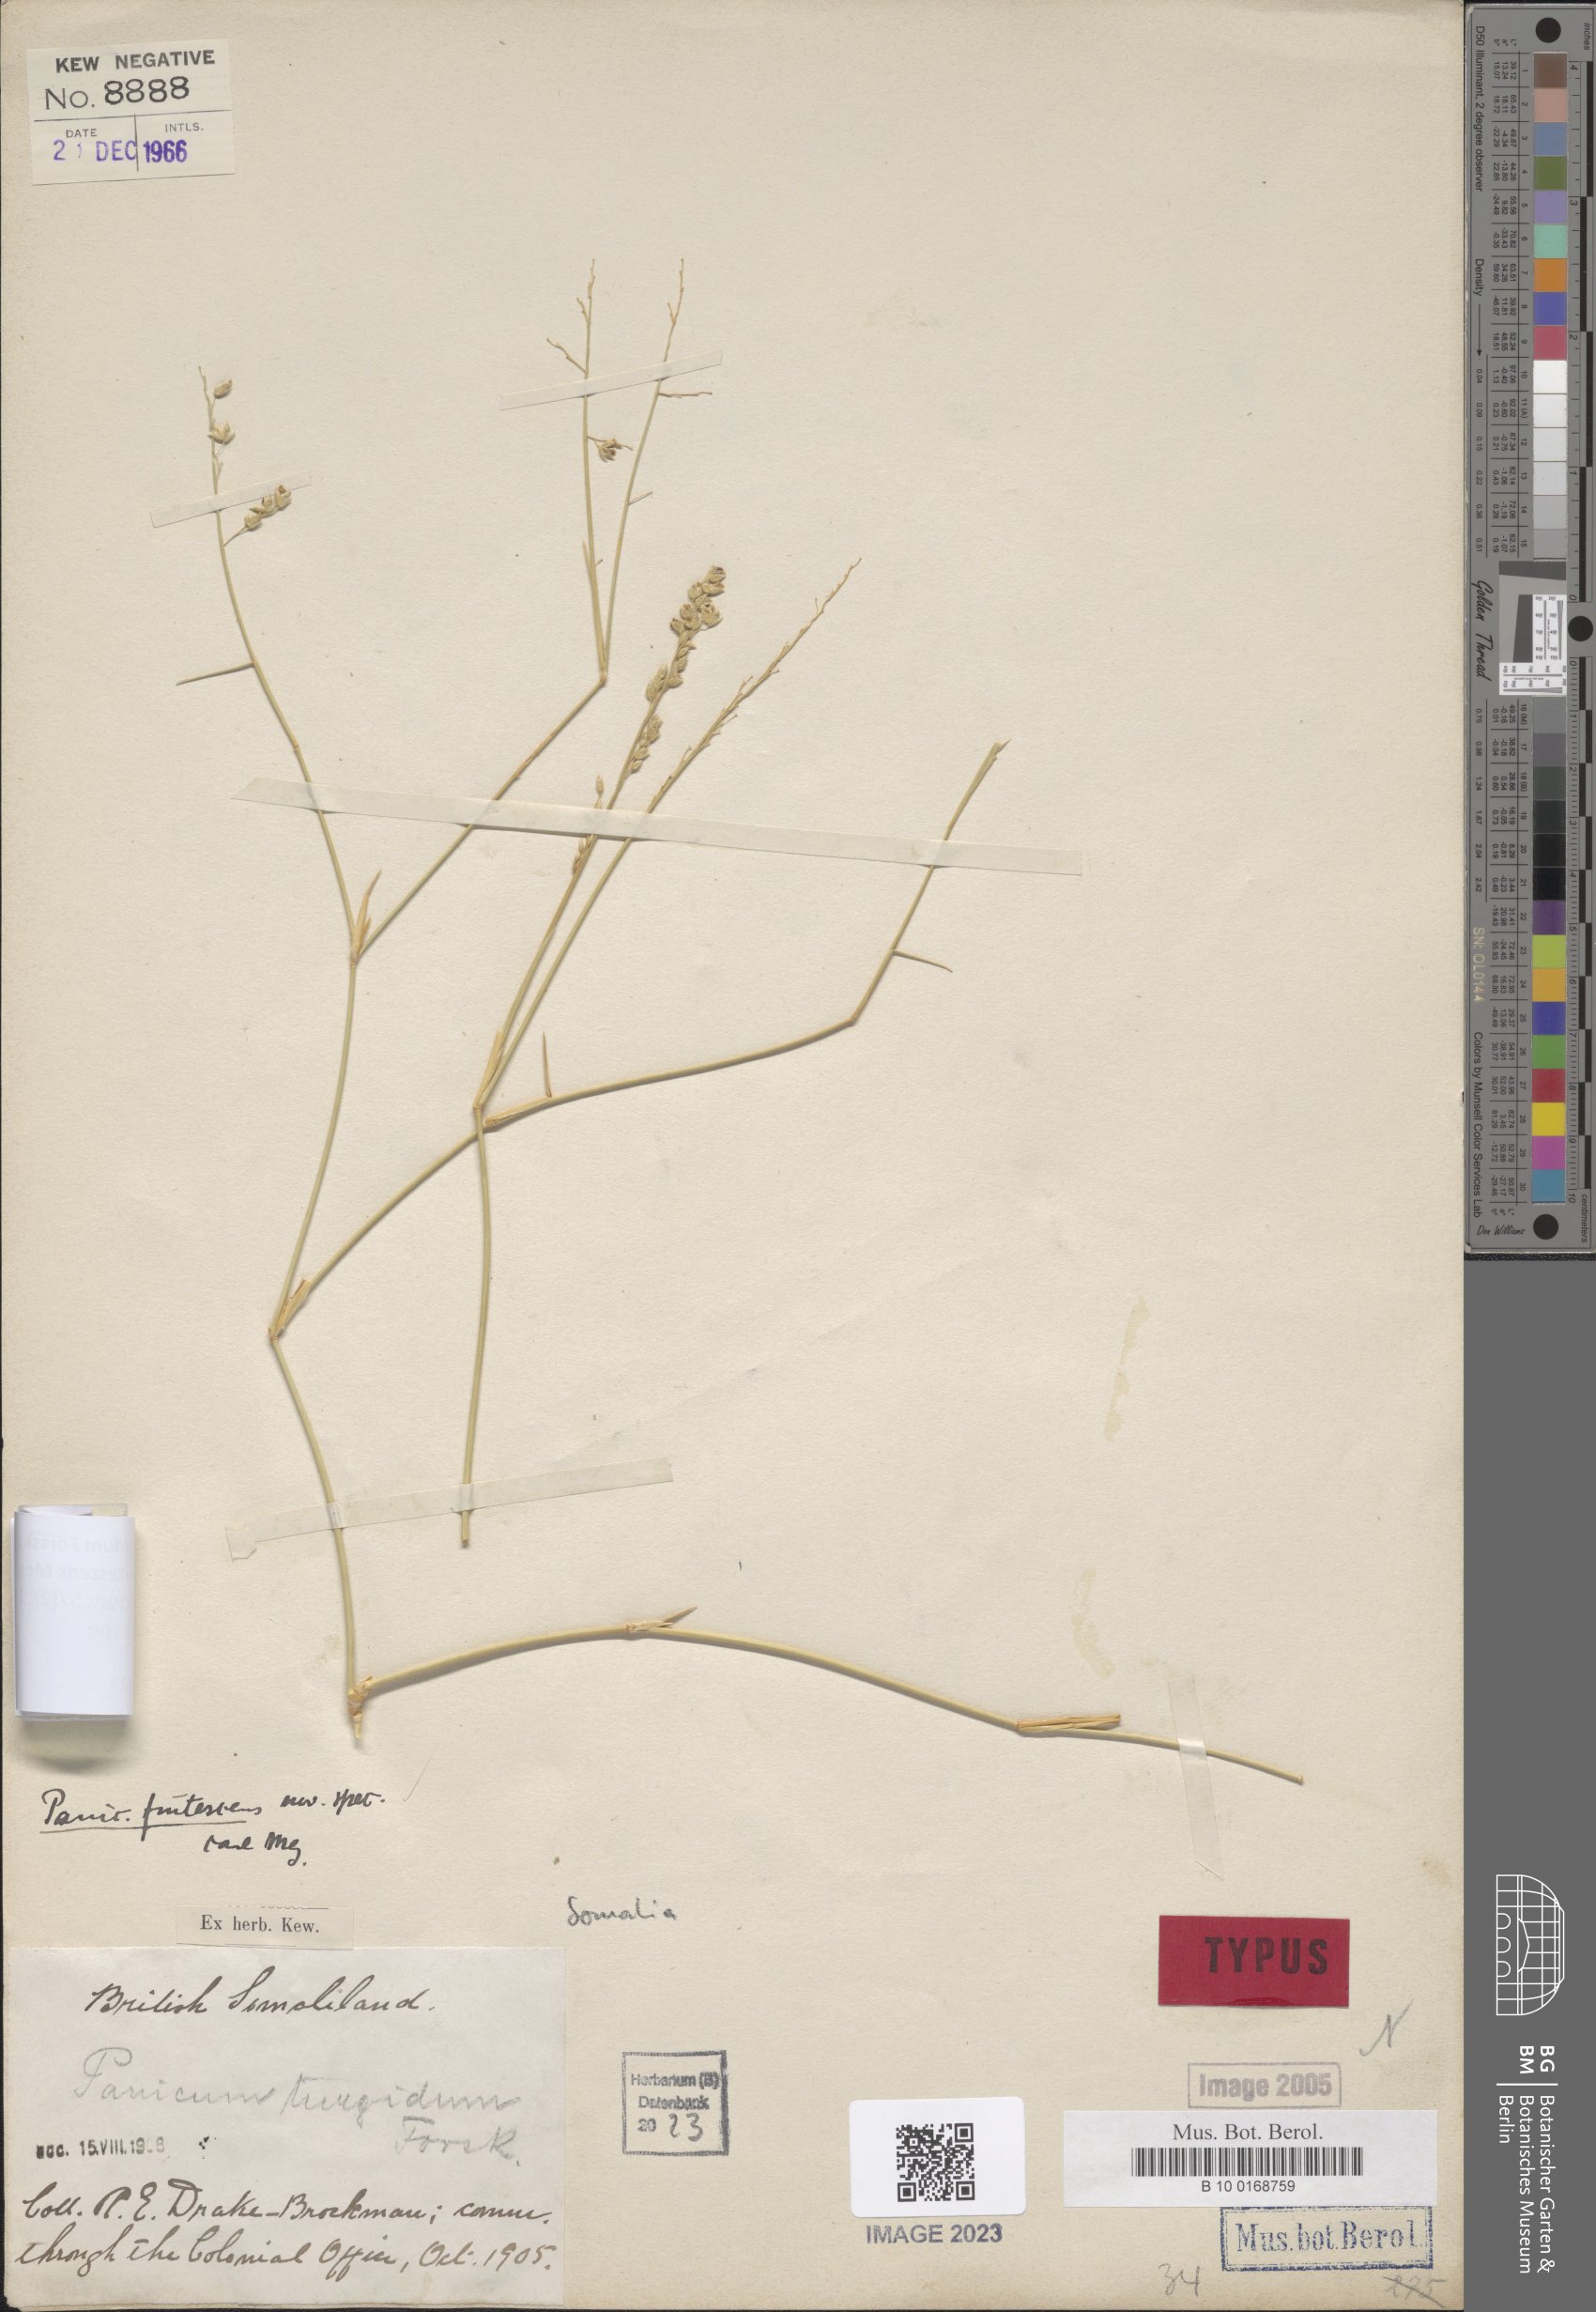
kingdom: Plantae
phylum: Tracheophyta
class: Liliopsida
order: Poales
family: Poaceae
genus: Panicum
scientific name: Panicum turgidum
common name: Desert grass
